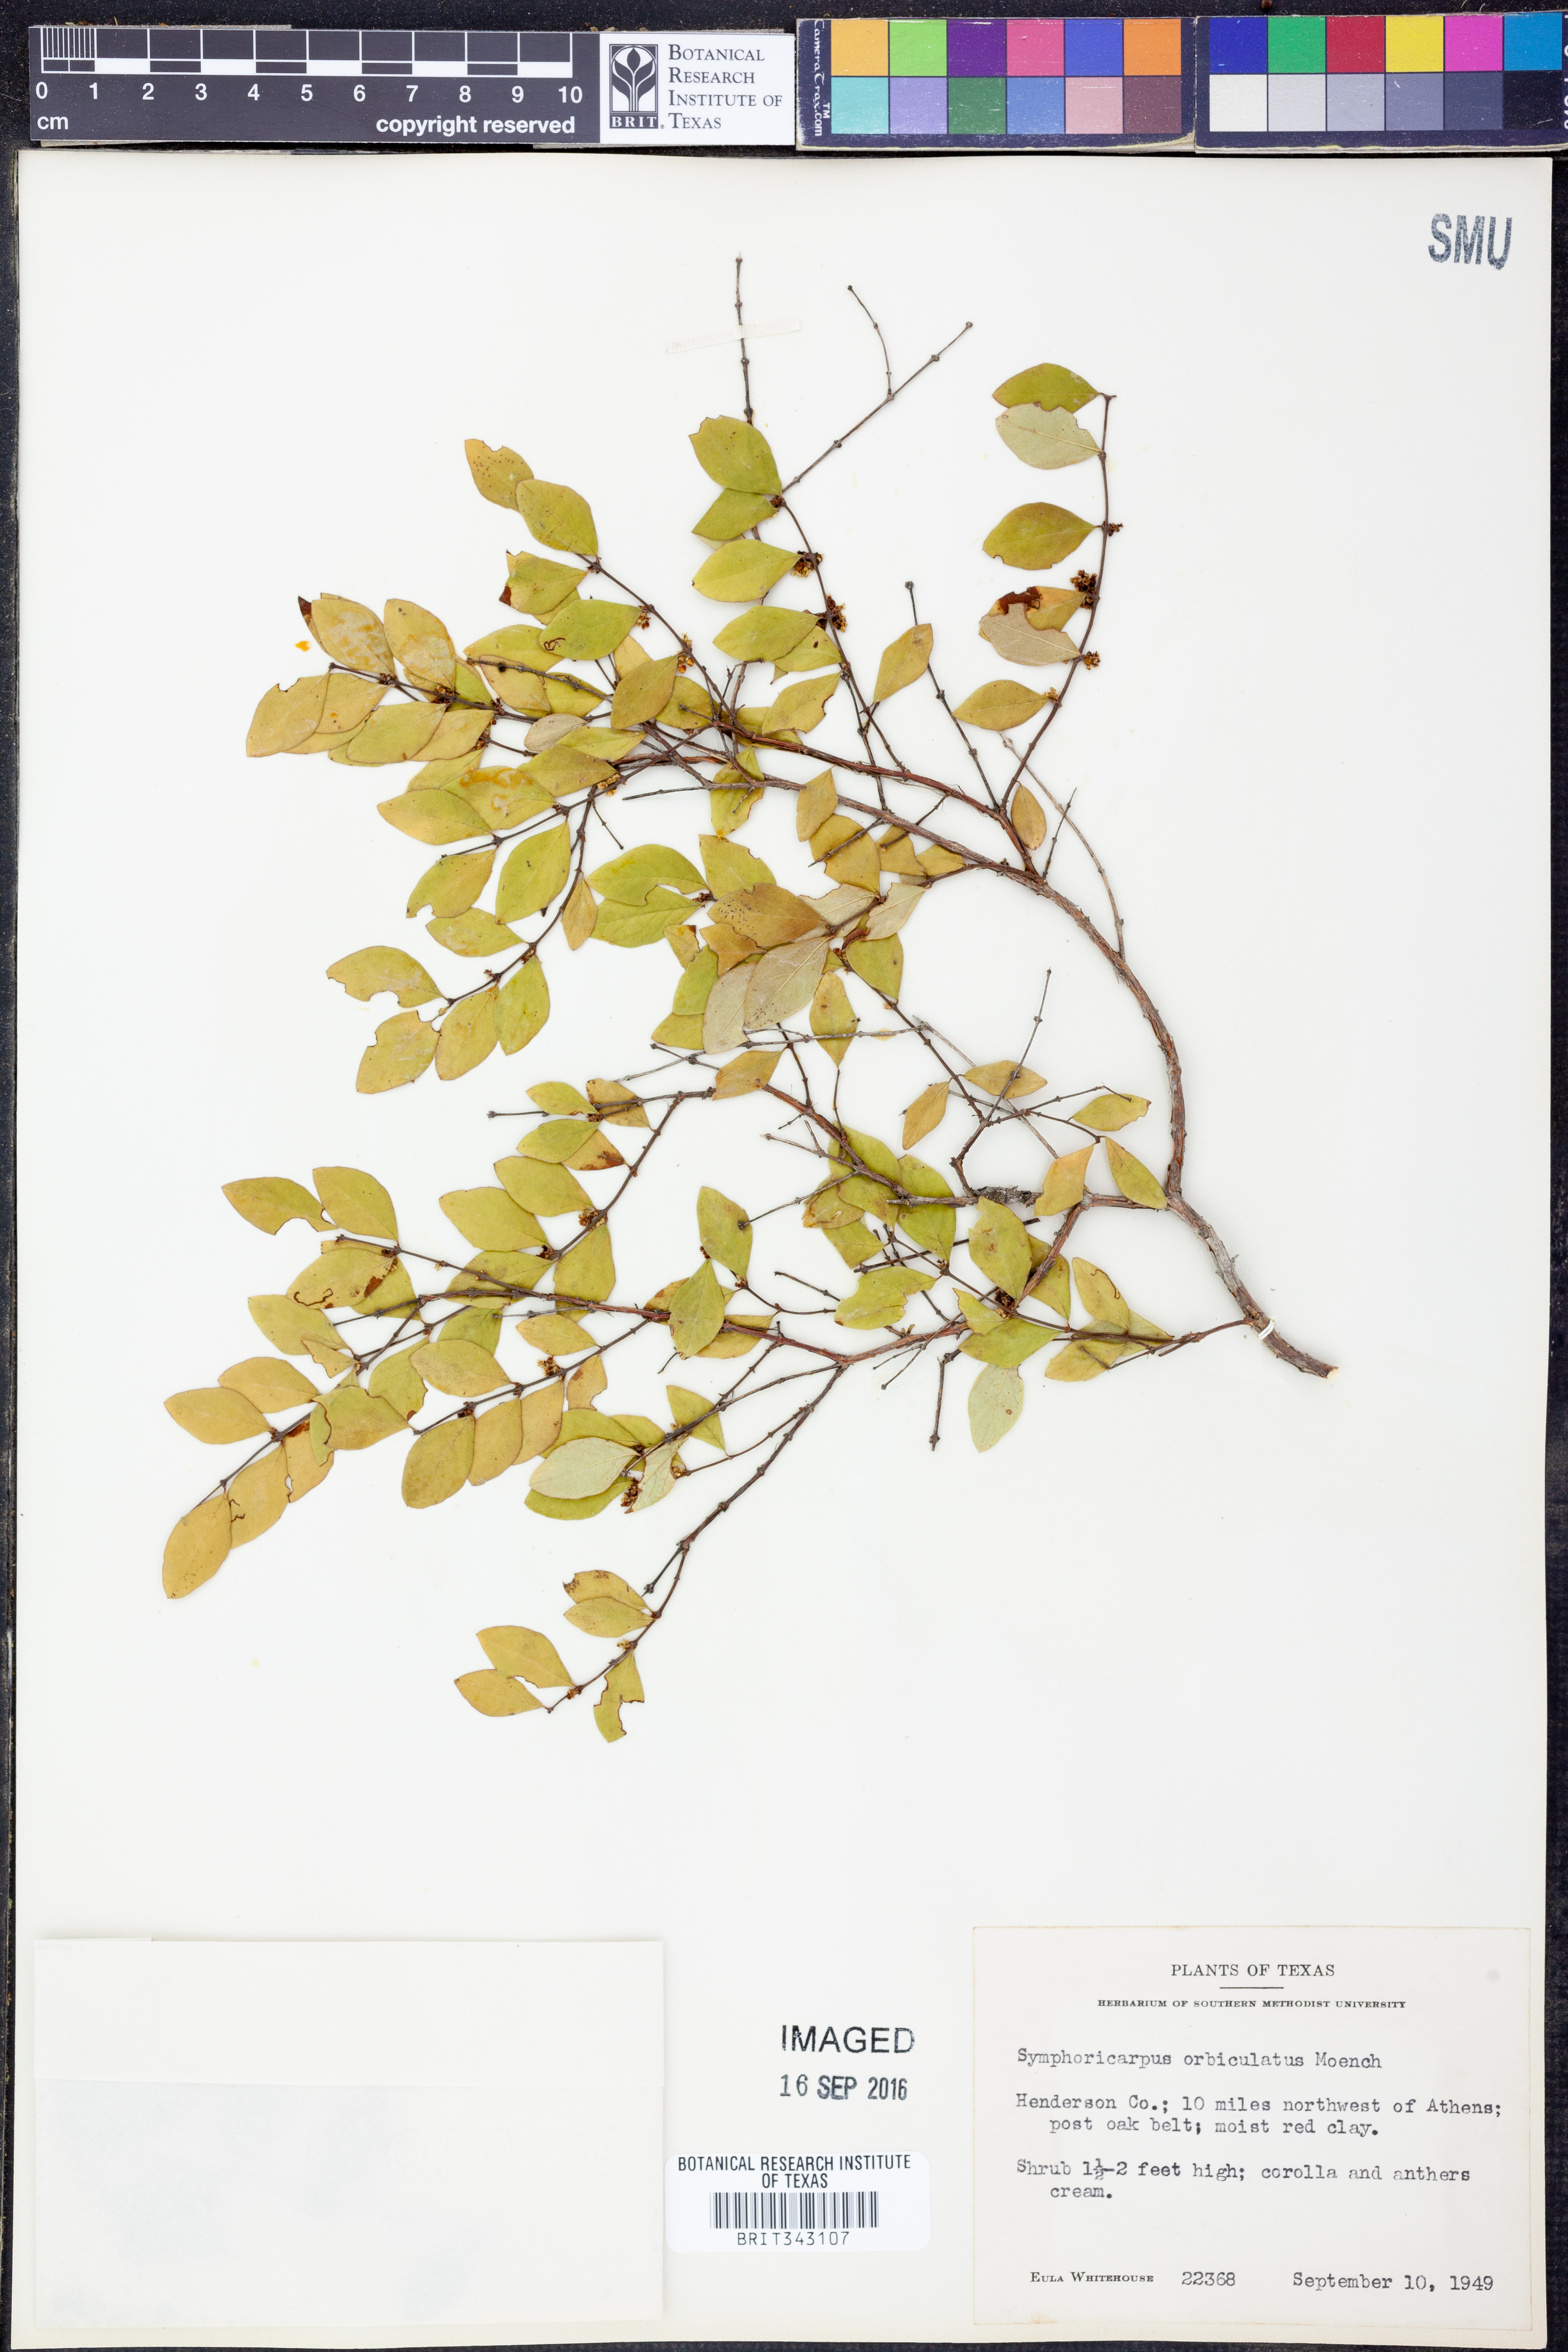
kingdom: Plantae
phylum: Tracheophyta
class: Magnoliopsida
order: Dipsacales
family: Caprifoliaceae
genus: Symphoricarpos
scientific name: Symphoricarpos orbiculatus
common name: Coralberry
